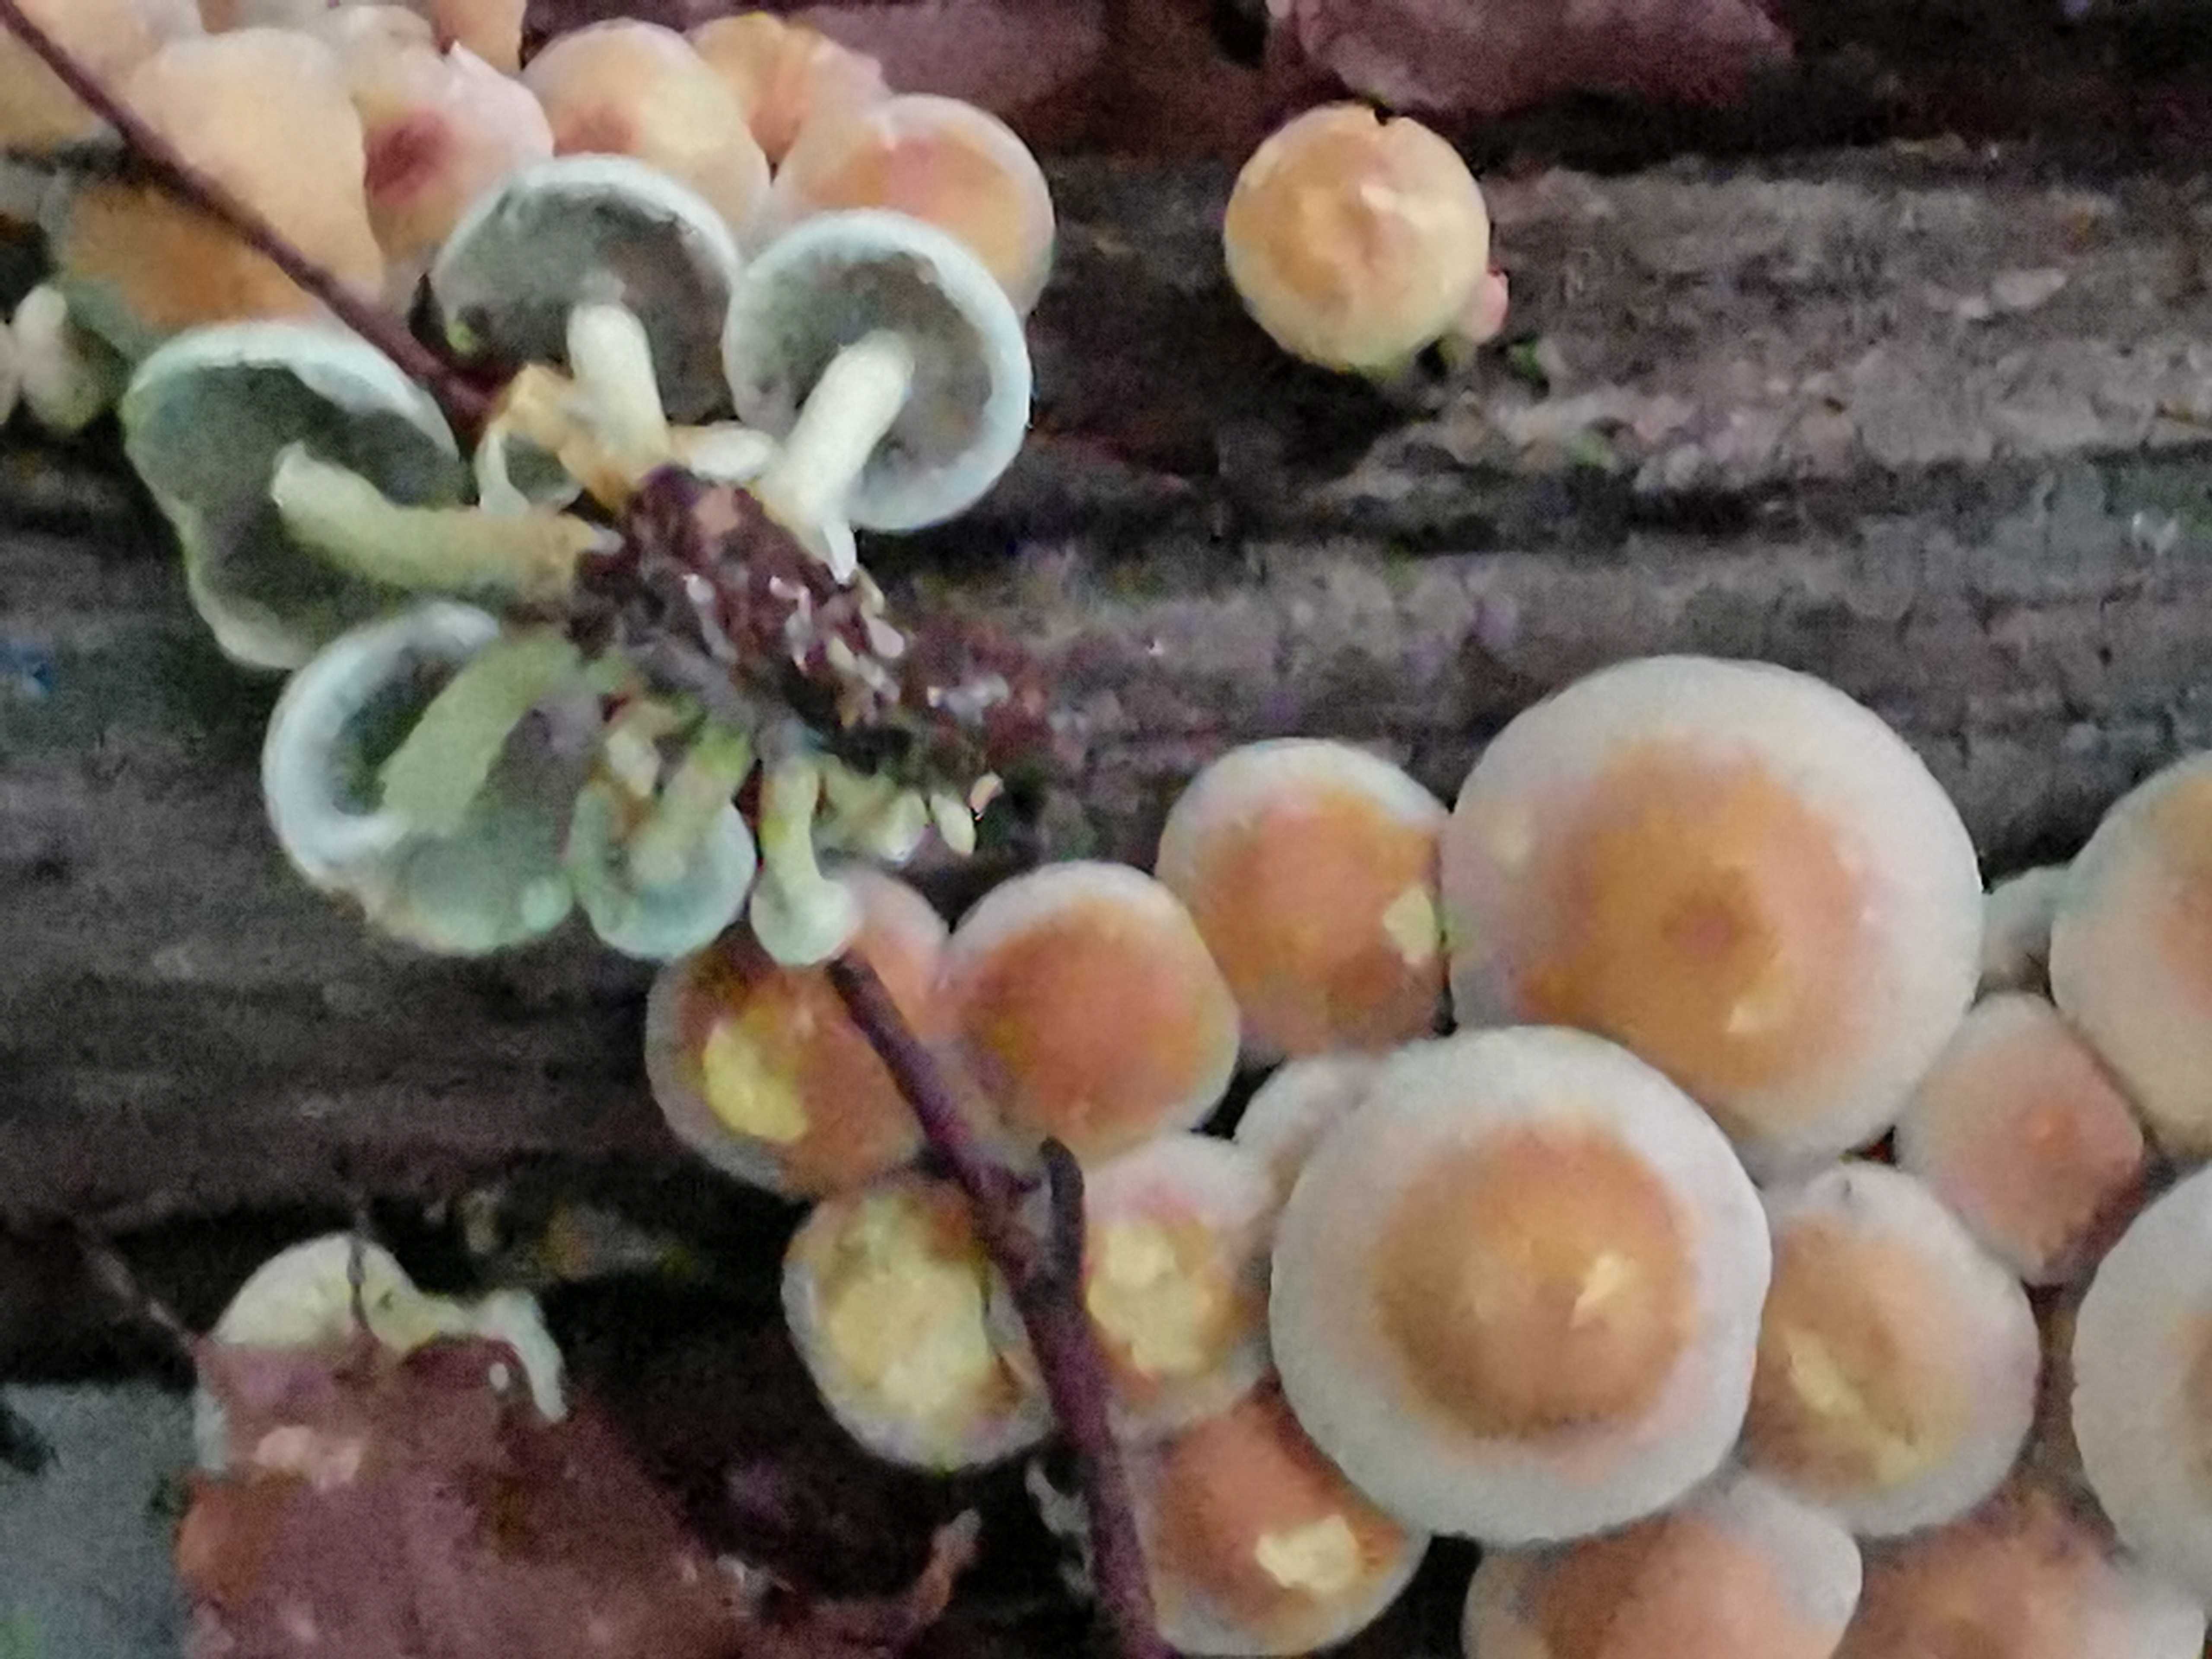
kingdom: Fungi
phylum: Basidiomycota
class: Agaricomycetes
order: Agaricales
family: Strophariaceae
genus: Hypholoma
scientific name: Hypholoma fasciculare
